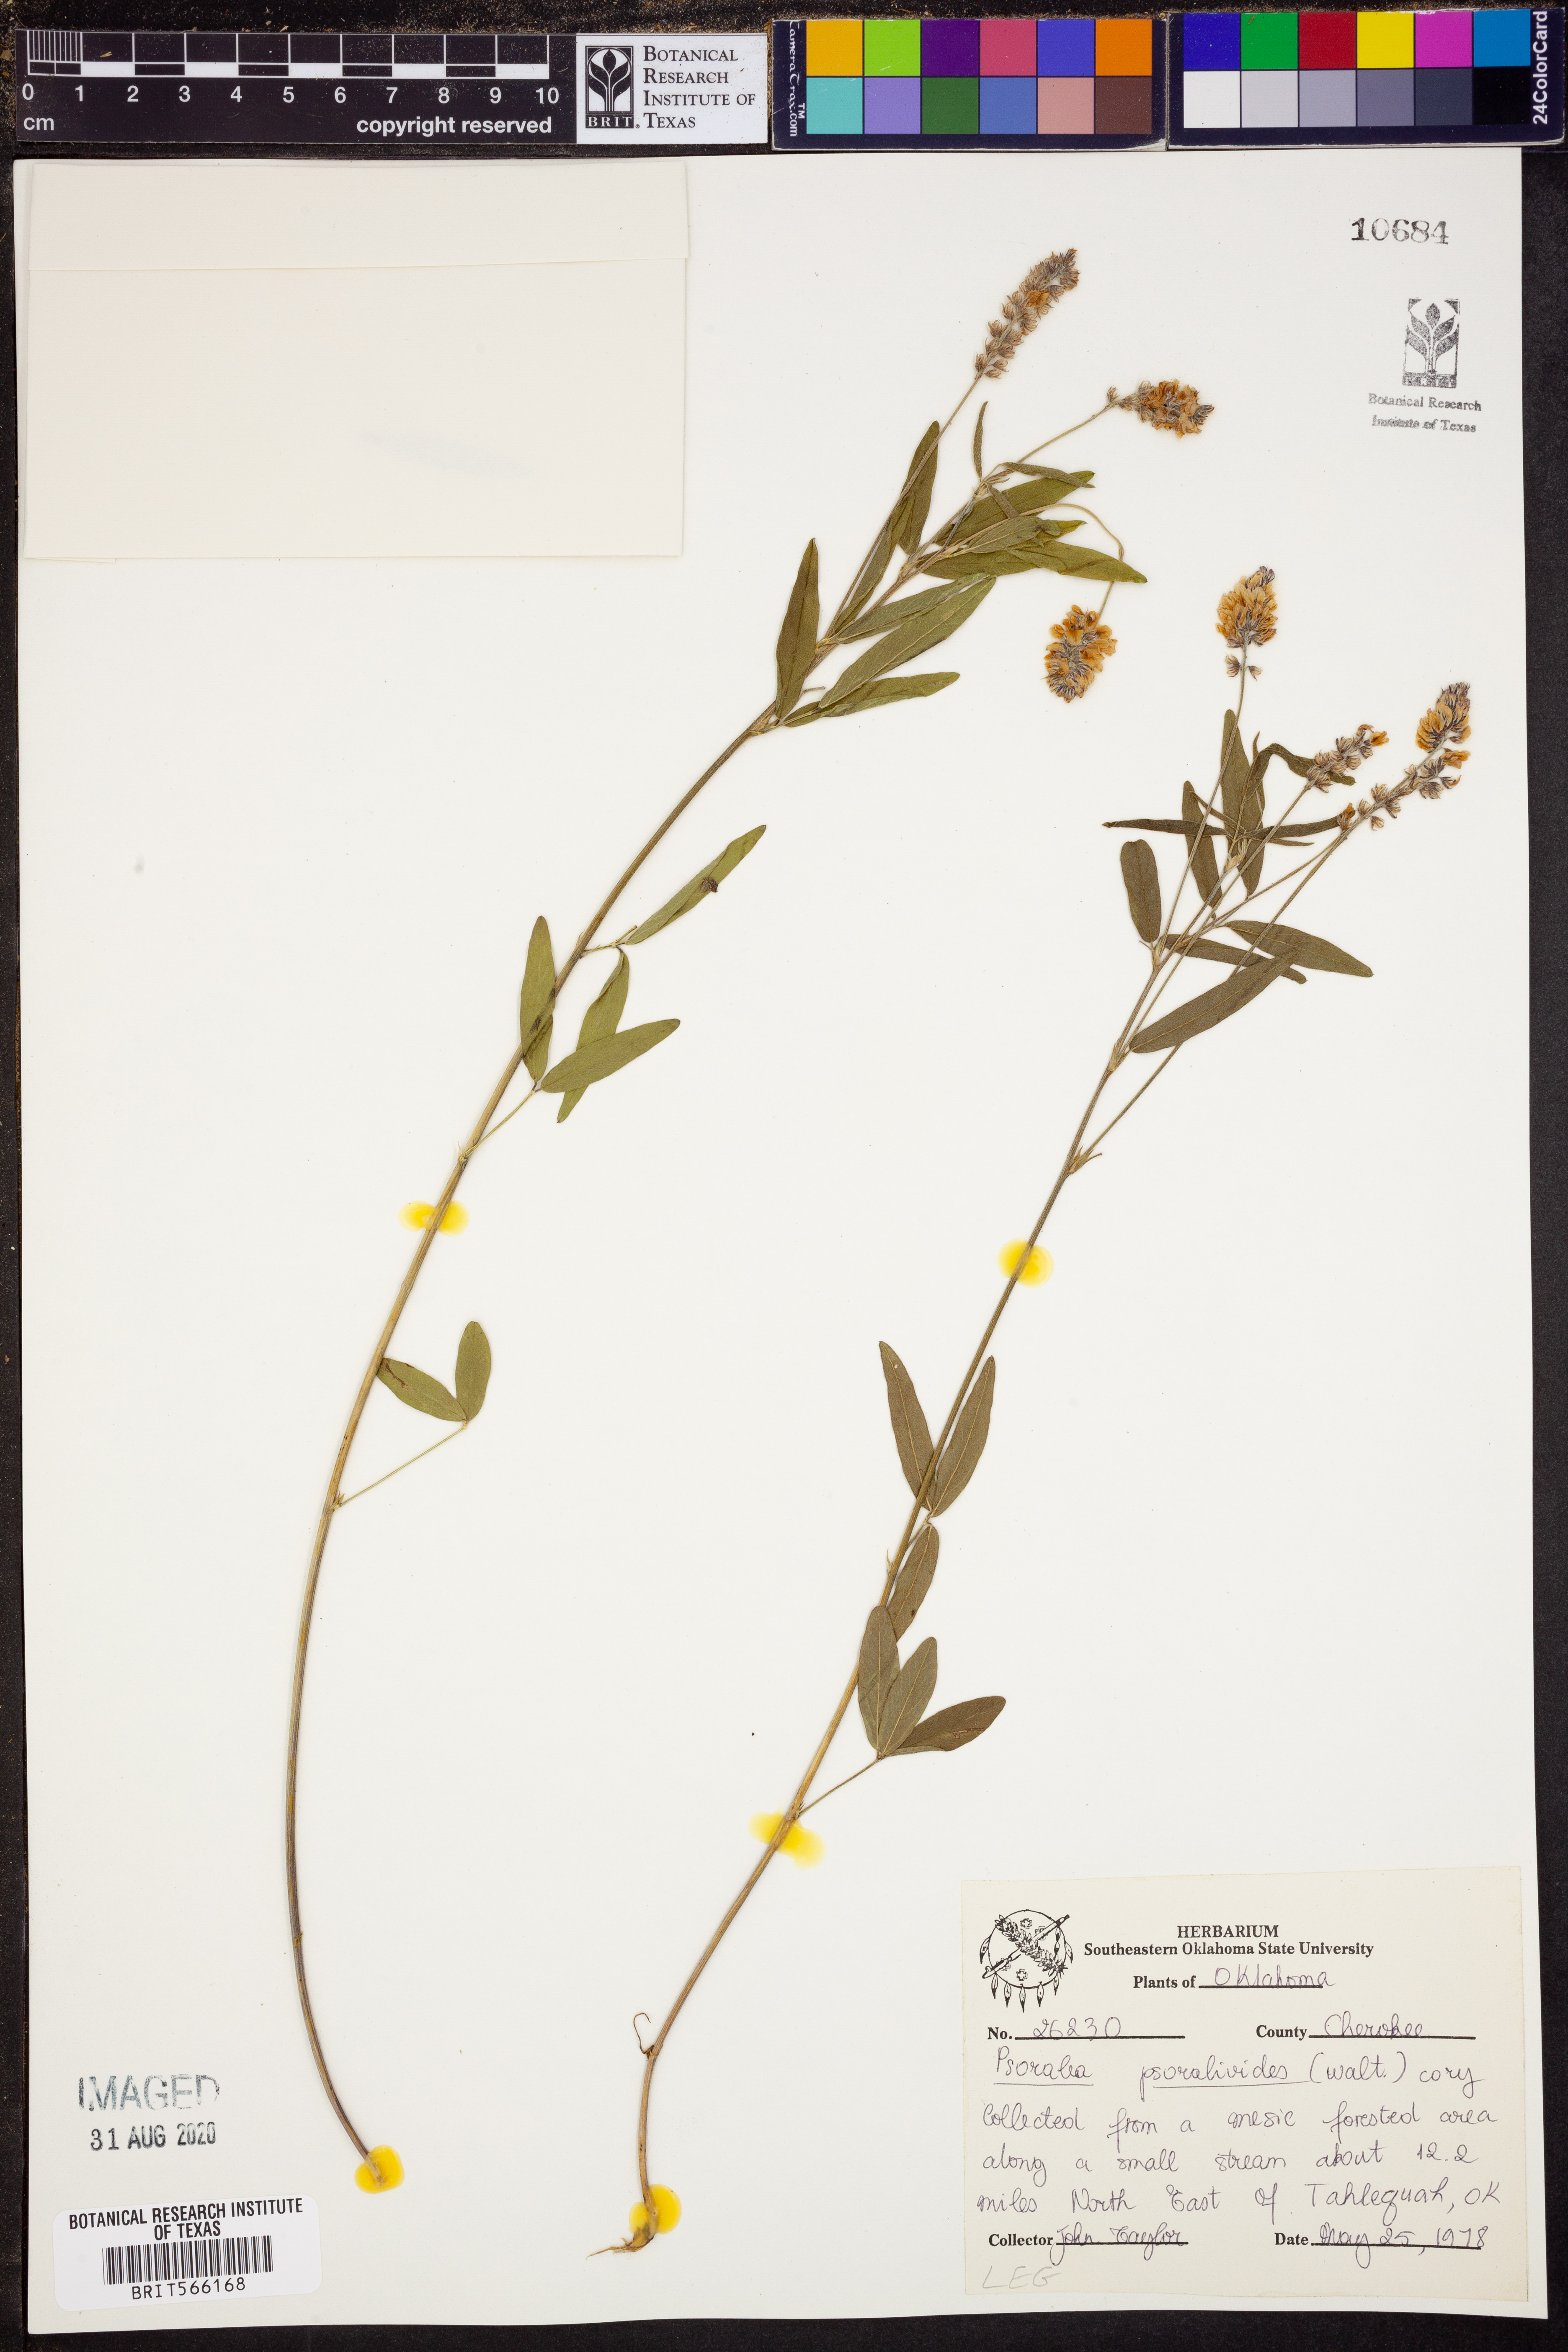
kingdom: Plantae
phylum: Tracheophyta
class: Magnoliopsida
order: Fabales
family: Fabaceae
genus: Orbexilum
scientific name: Orbexilum psoralioides
